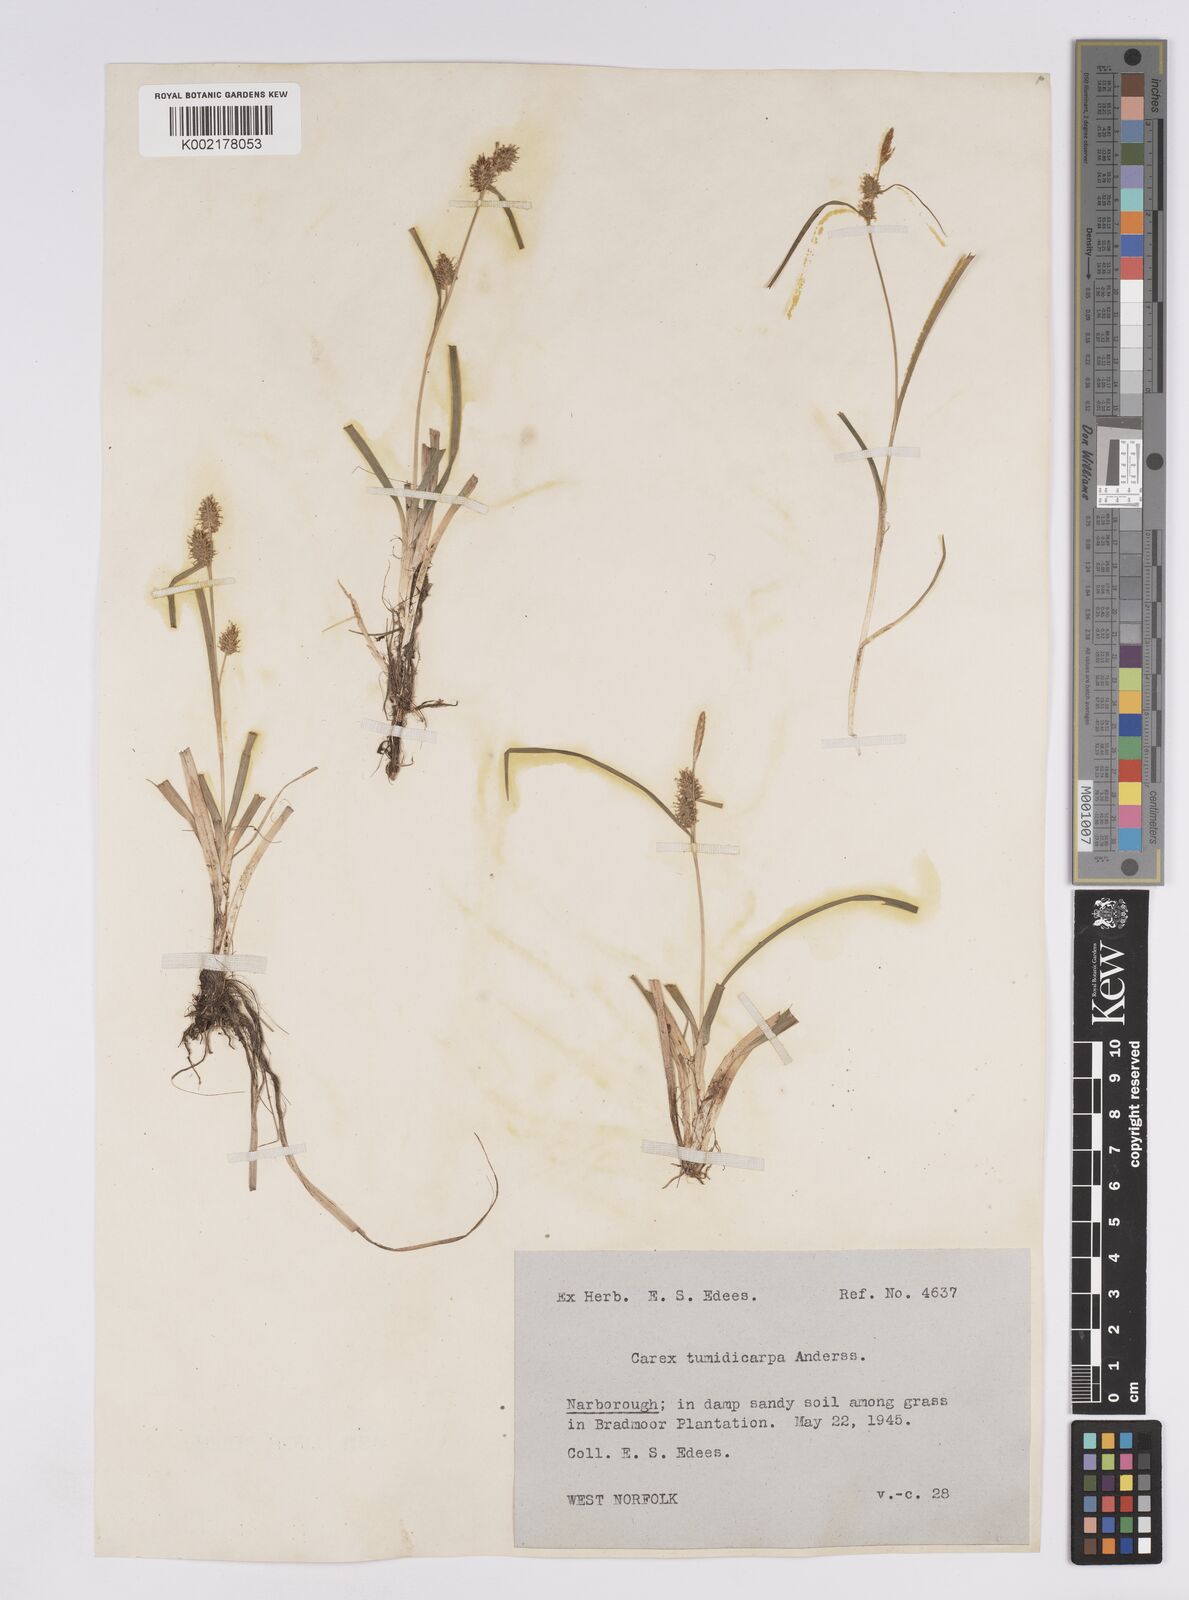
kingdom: Plantae
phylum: Tracheophyta
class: Liliopsida
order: Poales
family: Cyperaceae
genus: Carex
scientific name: Carex demissa
